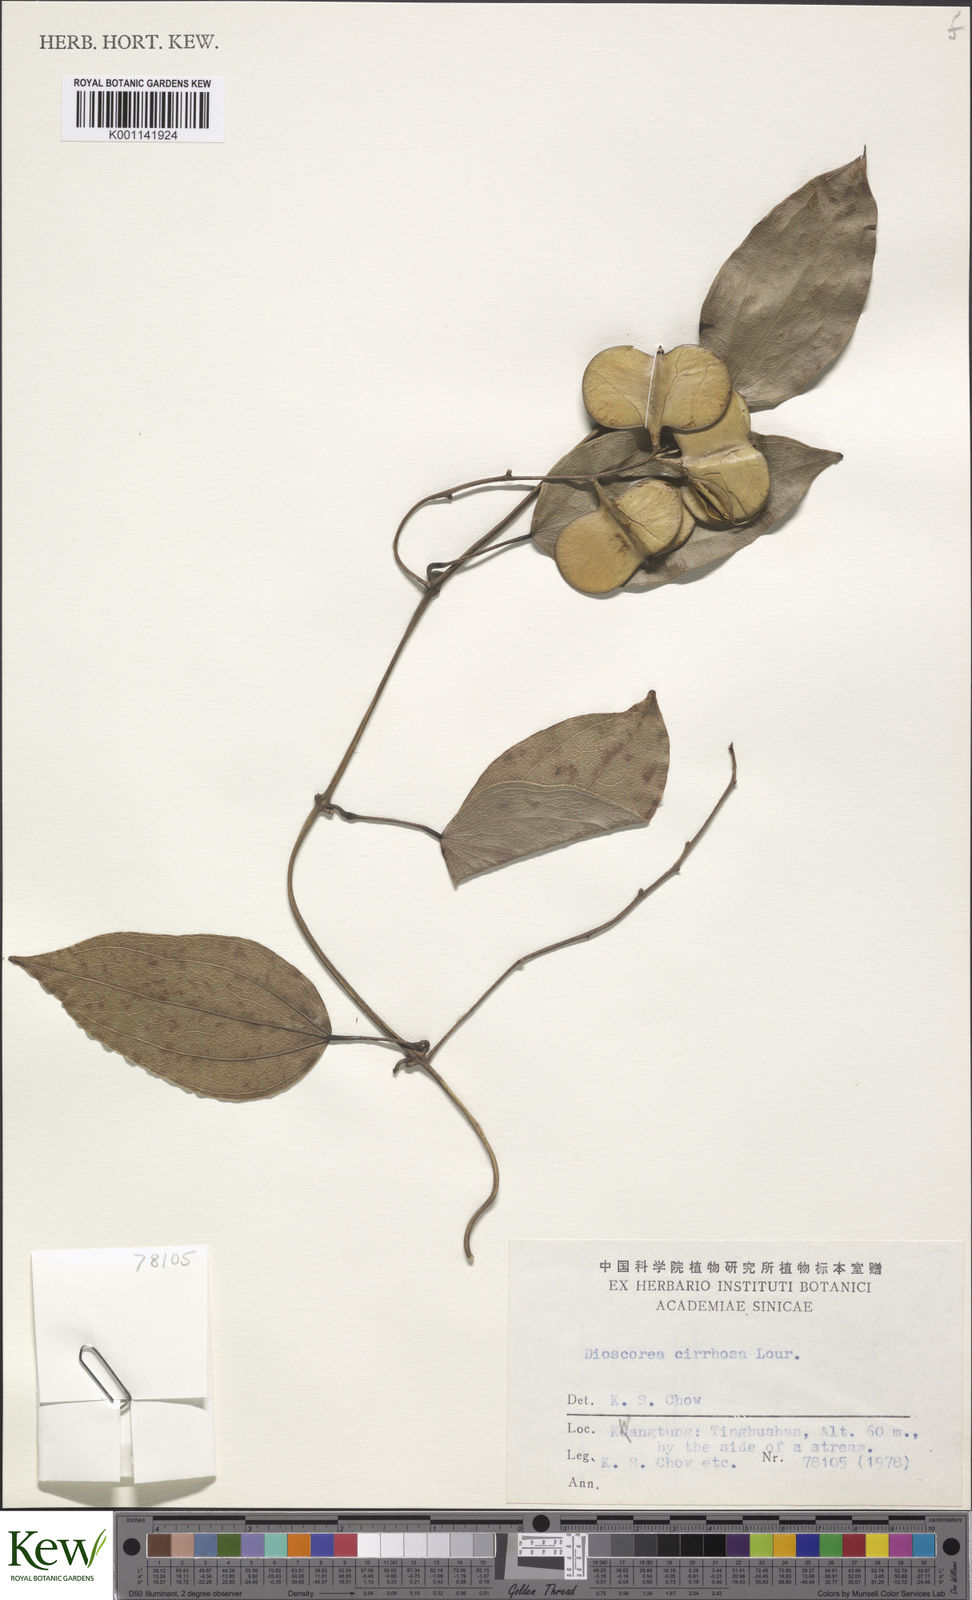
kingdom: Plantae
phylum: Tracheophyta
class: Liliopsida
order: Dioscoreales
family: Dioscoreaceae
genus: Dioscorea
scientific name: Dioscorea cirrhosa
